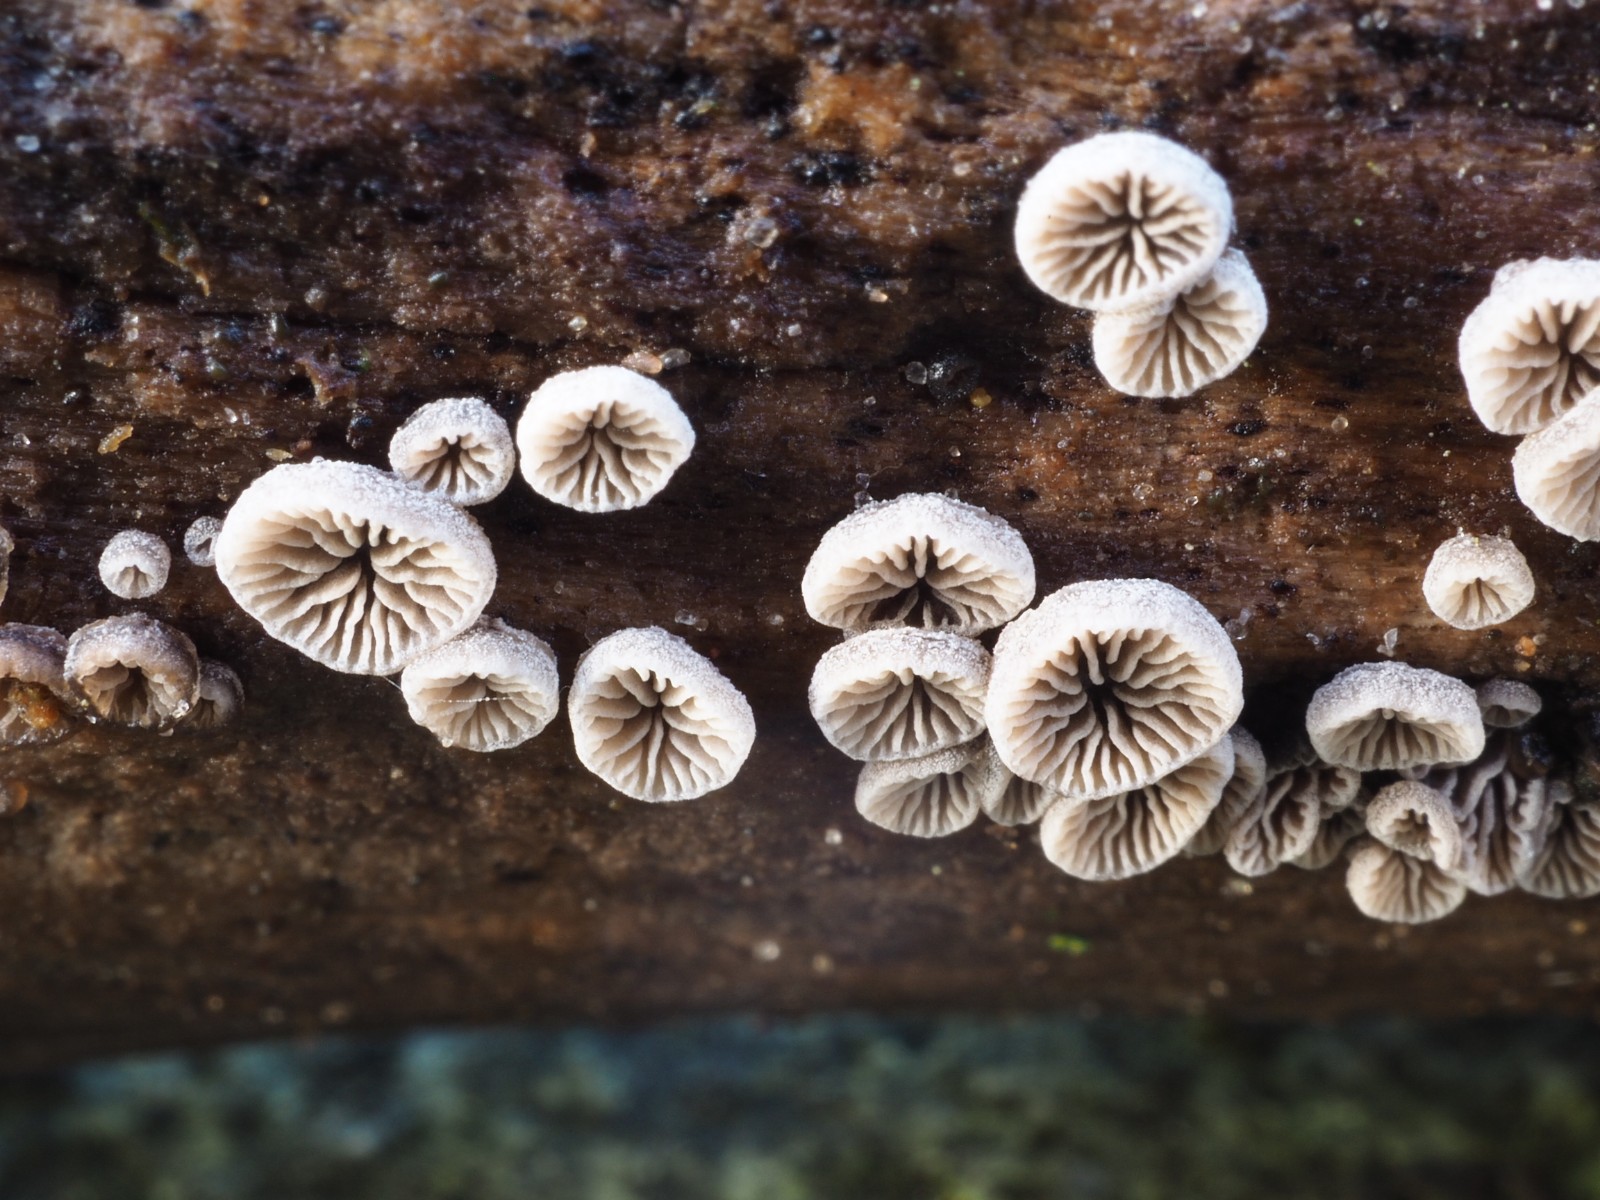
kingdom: Fungi
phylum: Basidiomycota
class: Agaricomycetes
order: Agaricales
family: Pleurotaceae
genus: Resupinatus
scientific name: Resupinatus applicatus
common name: lysfiltet barkhat
